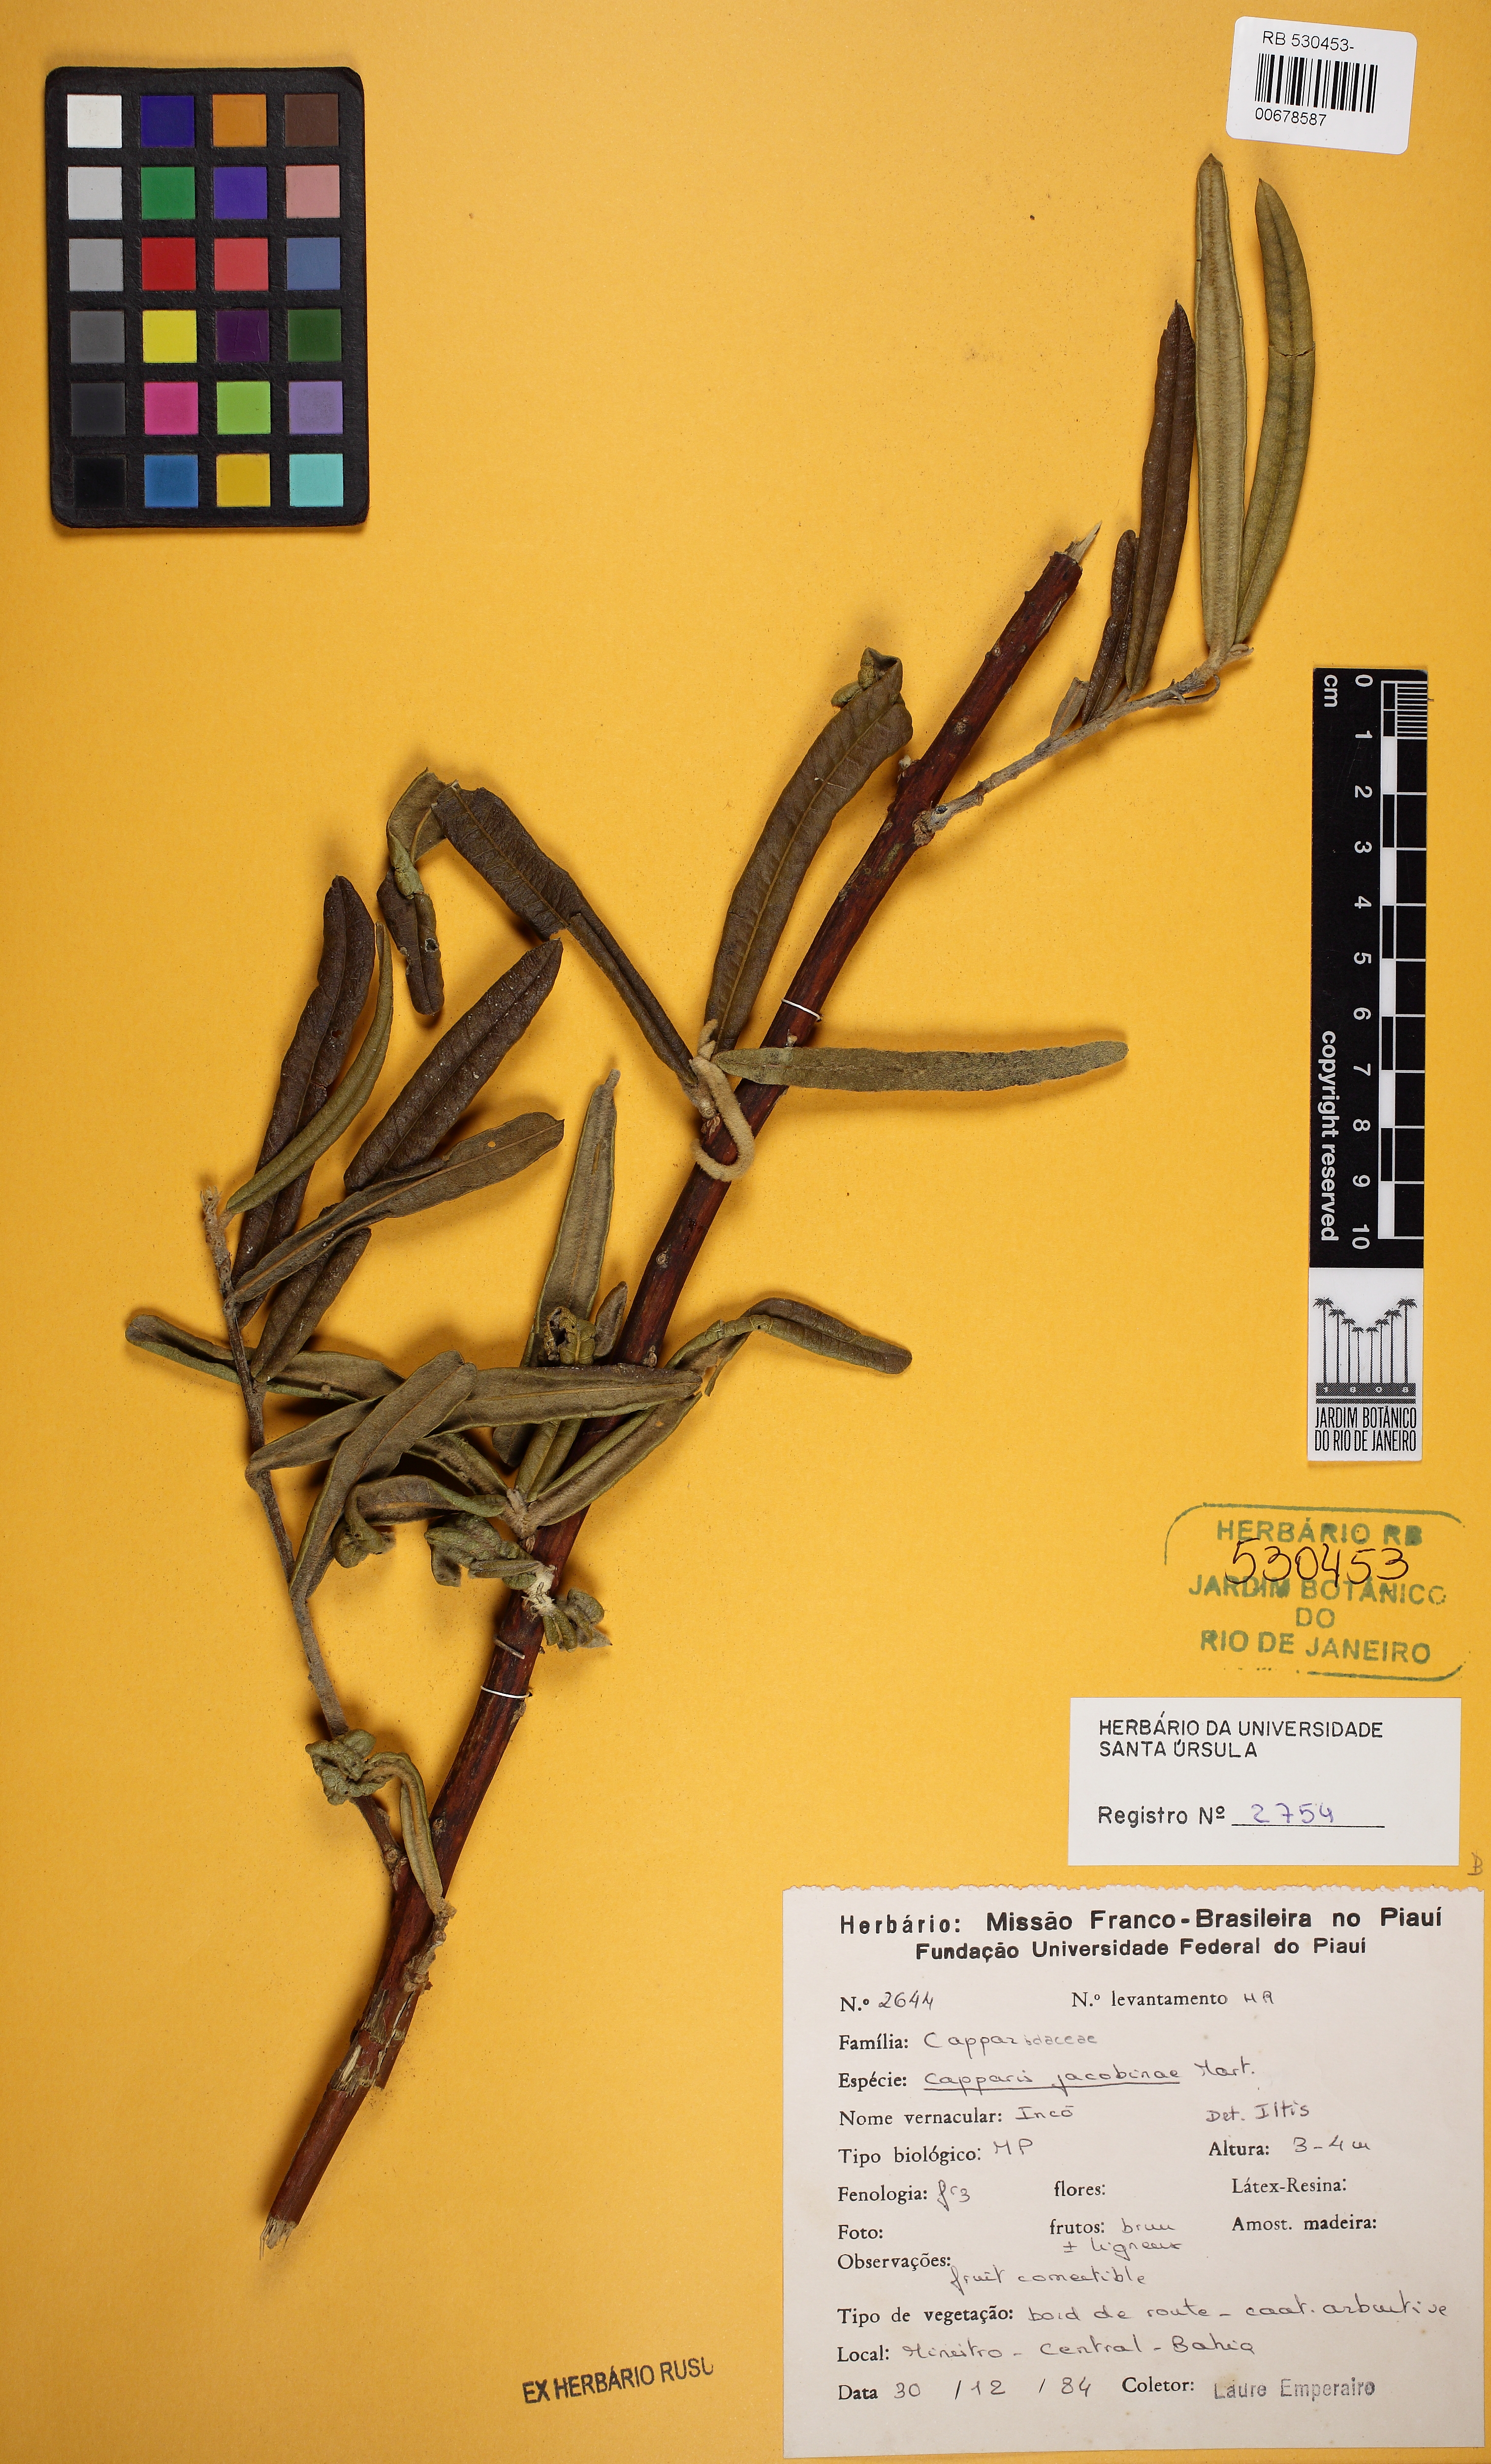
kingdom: Plantae
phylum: Tracheophyta
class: Magnoliopsida
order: Brassicales
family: Capparaceae
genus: Neocalyptrocalyx
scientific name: Neocalyptrocalyx longifolium
